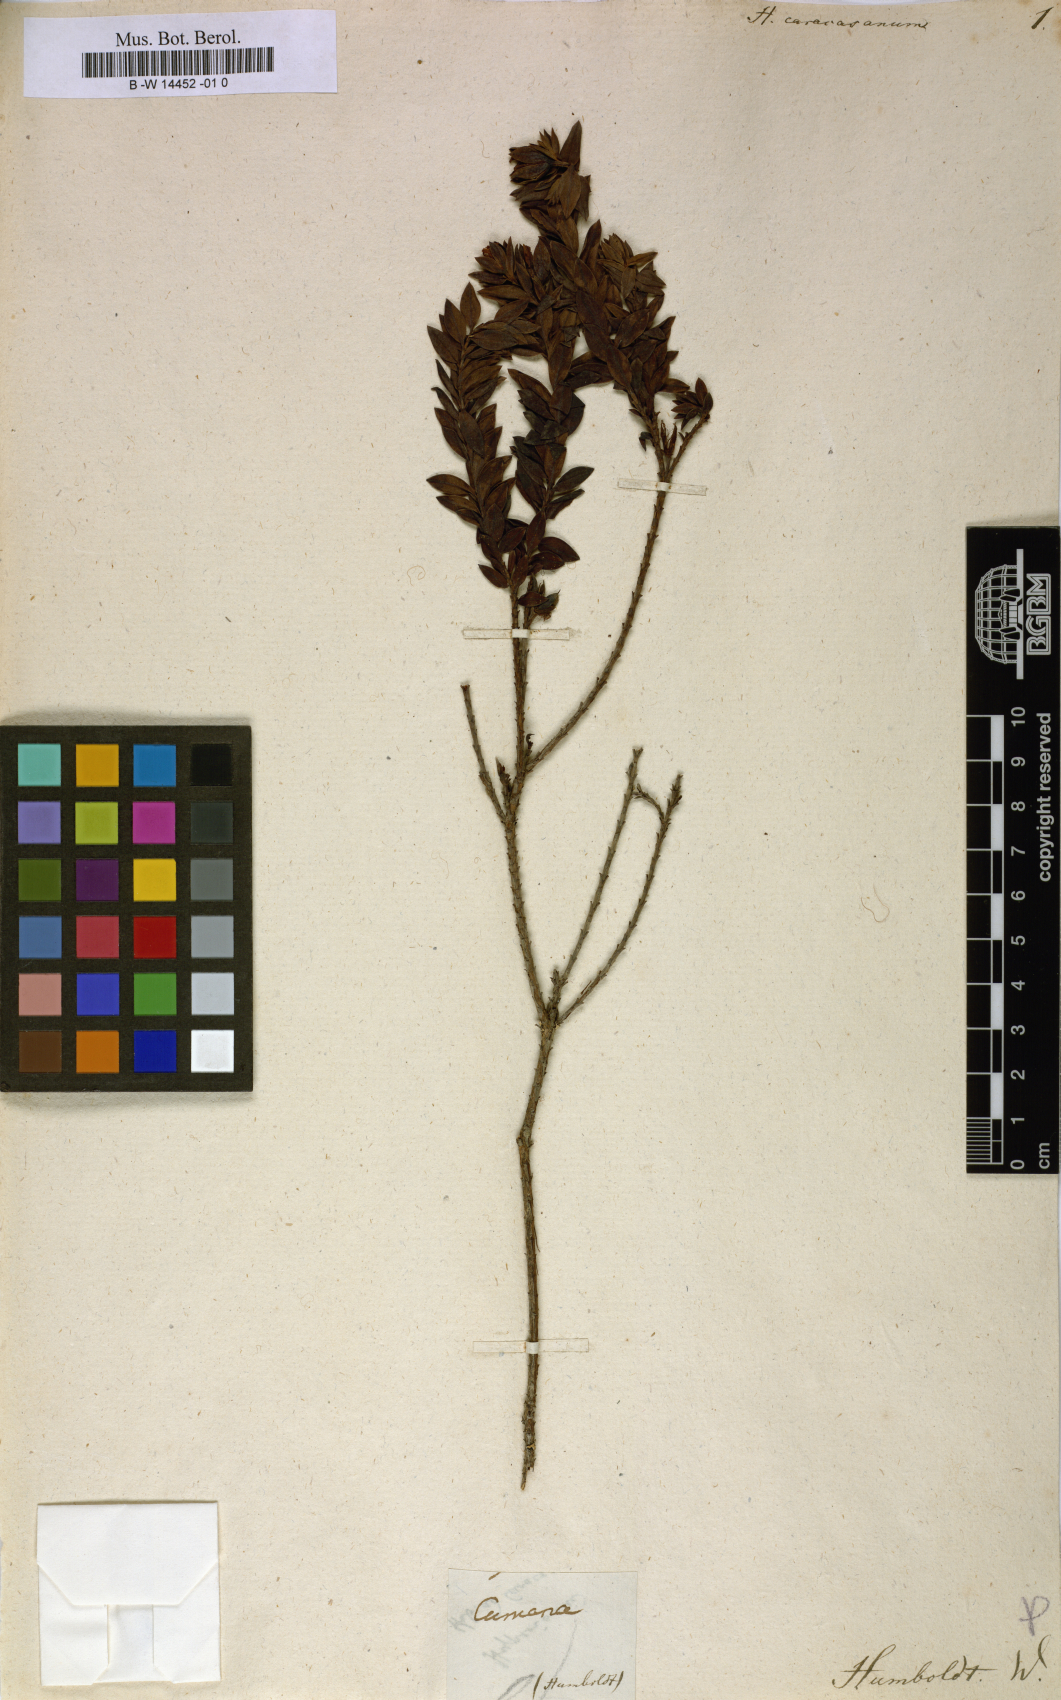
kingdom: Plantae
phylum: Tracheophyta
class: Magnoliopsida
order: Malpighiales
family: Hypericaceae
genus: Hypericum
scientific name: Hypericum caracasanum
